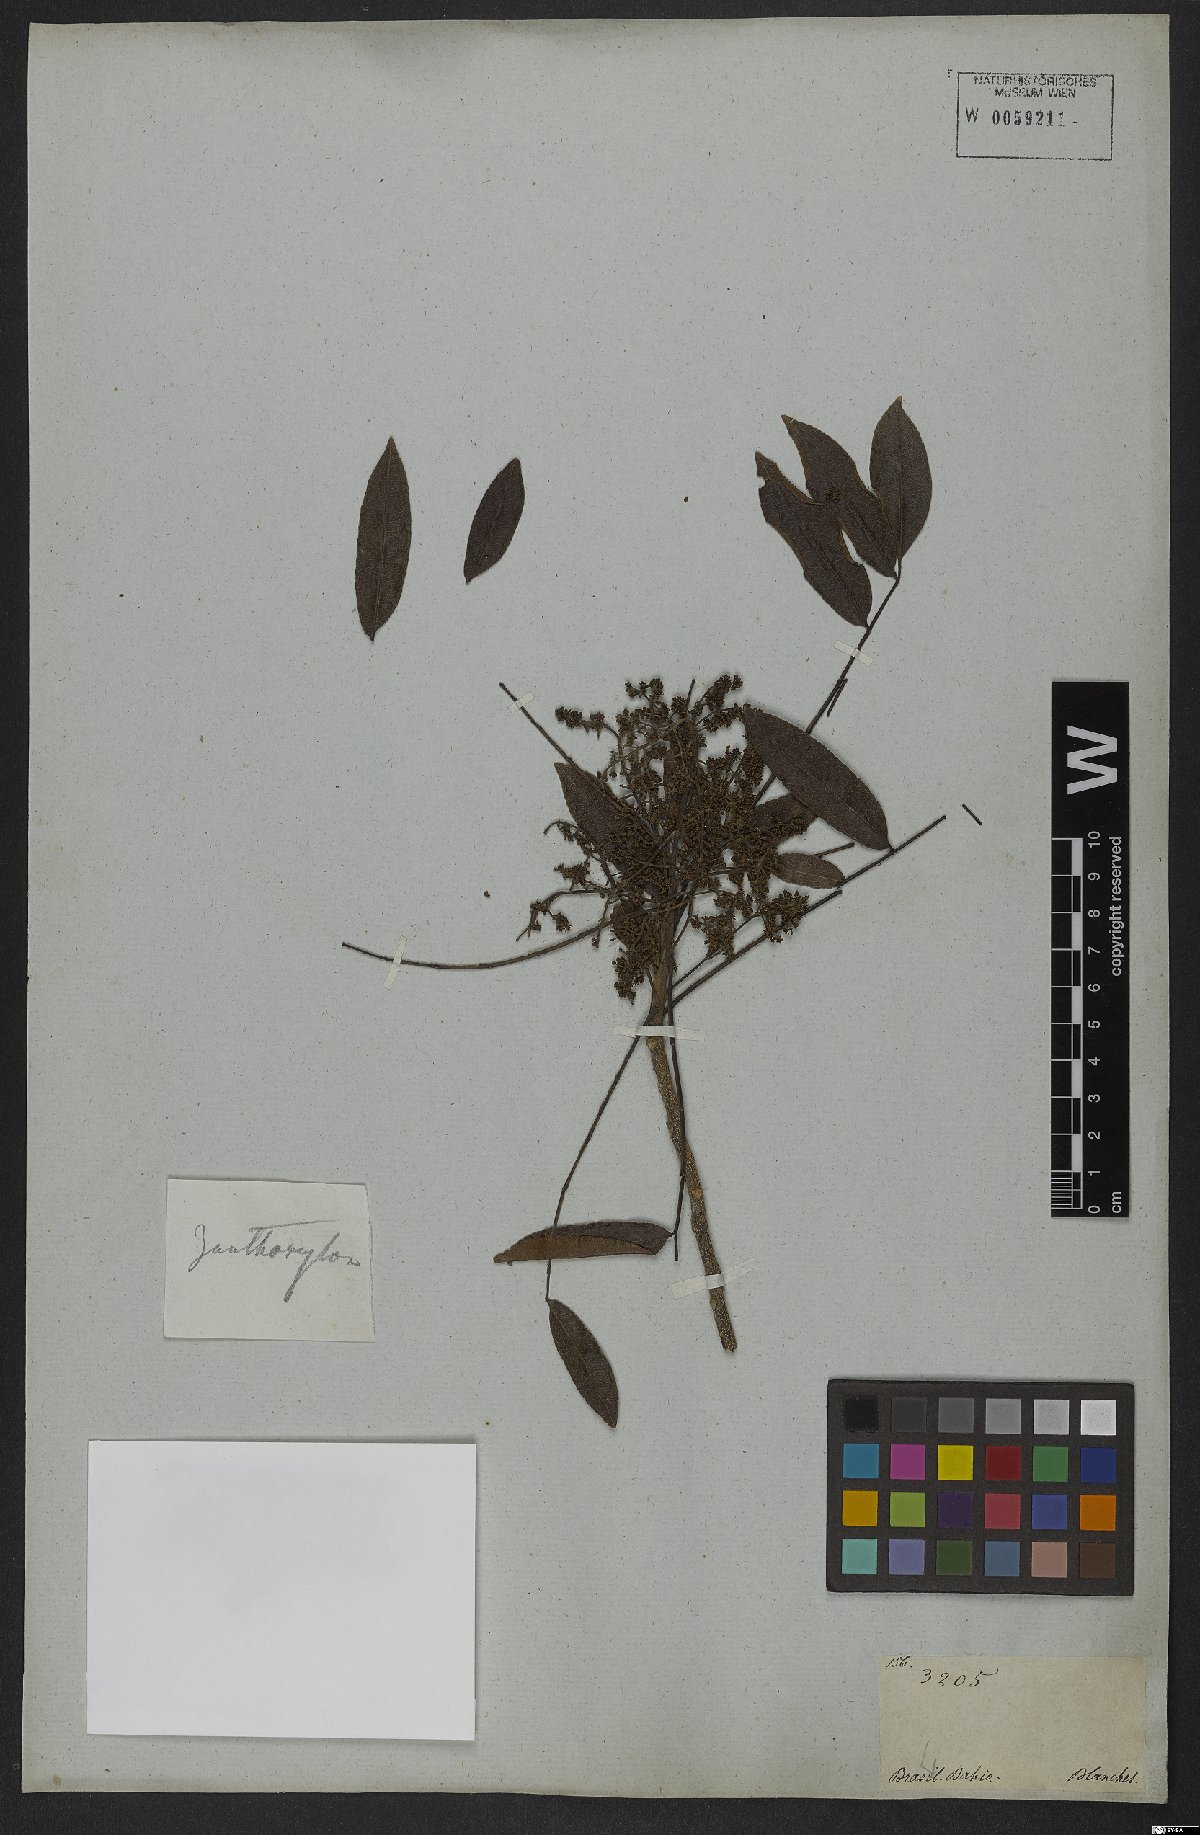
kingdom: Plantae
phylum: Tracheophyta
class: Magnoliopsida
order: Sapindales
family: Rutaceae
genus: Zanthoxylum
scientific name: Zanthoxylum rhoifolium
